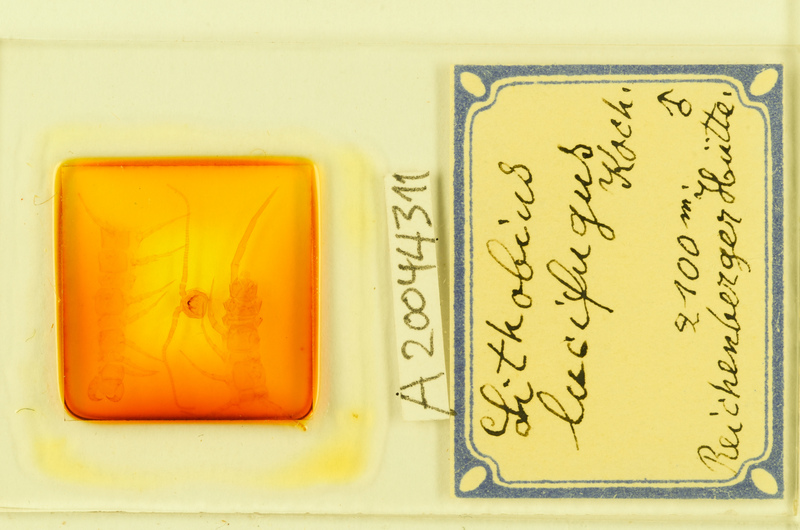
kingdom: Animalia
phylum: Arthropoda
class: Chilopoda
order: Lithobiomorpha
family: Lithobiidae
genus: Lithobius
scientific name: Lithobius lucifugus
